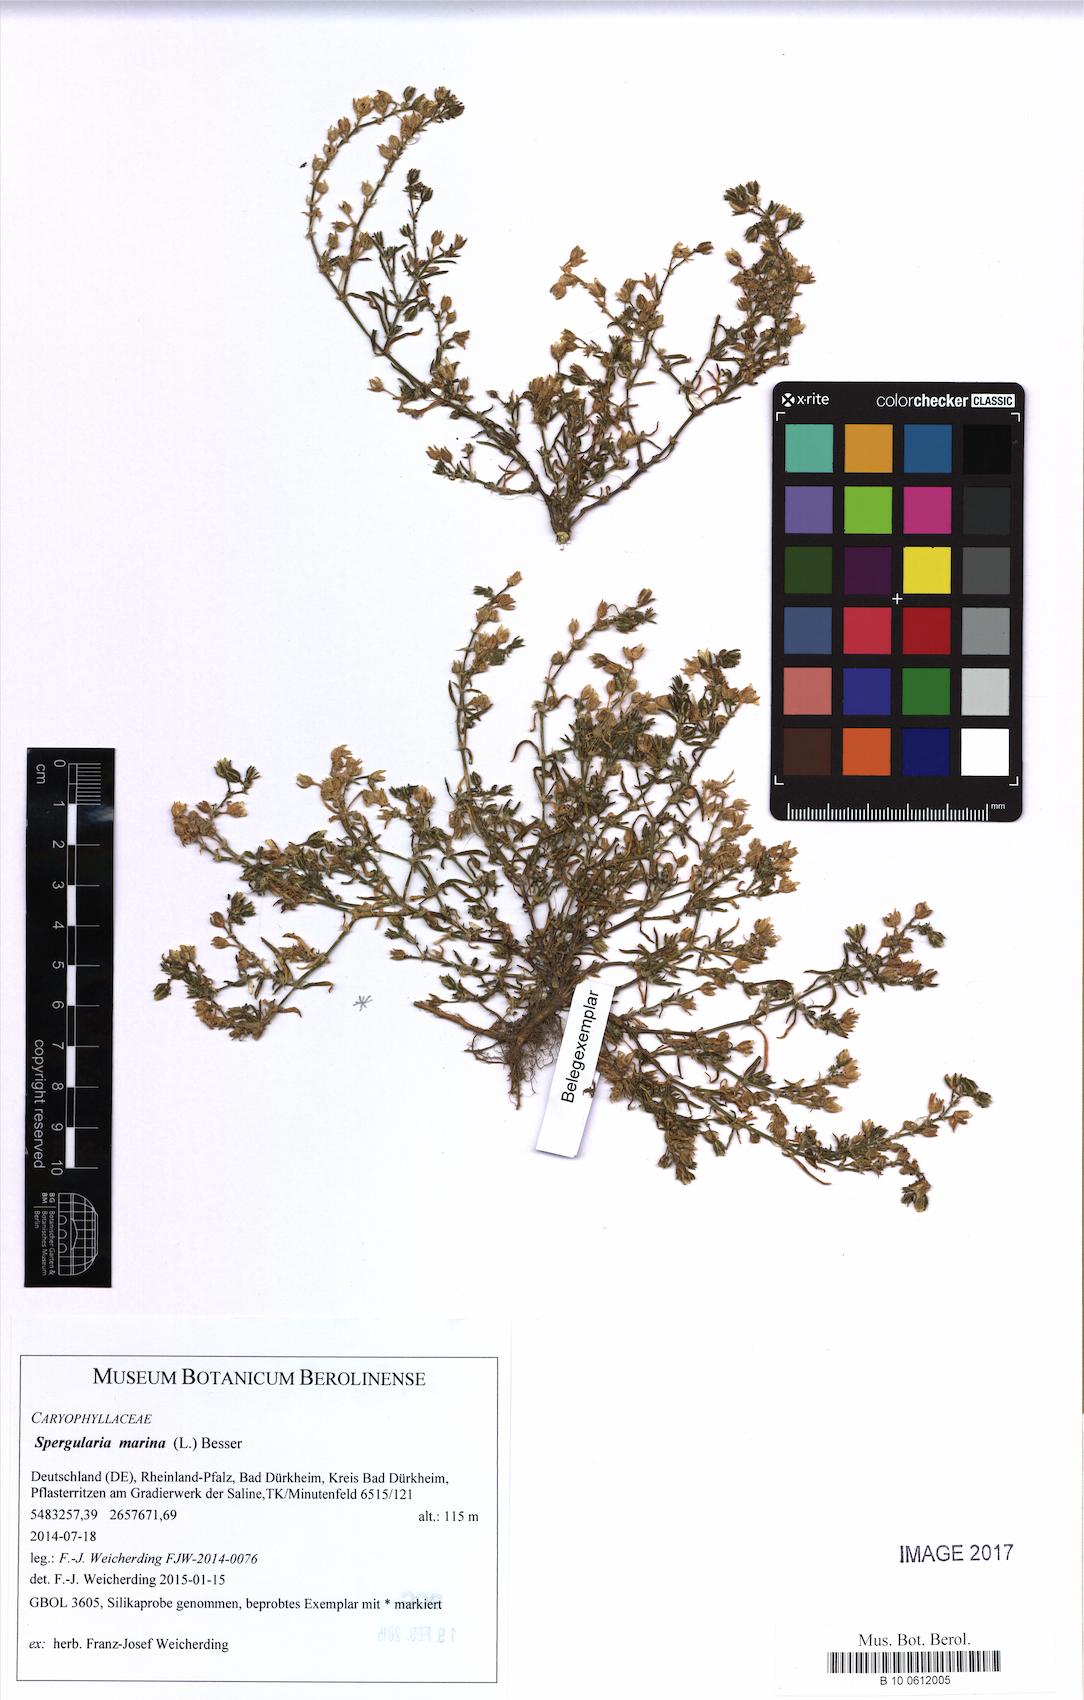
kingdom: Plantae
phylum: Tracheophyta
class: Magnoliopsida
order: Caryophyllales
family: Caryophyllaceae
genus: Spergularia
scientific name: Spergularia marina
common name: Lesser sea-spurrey
